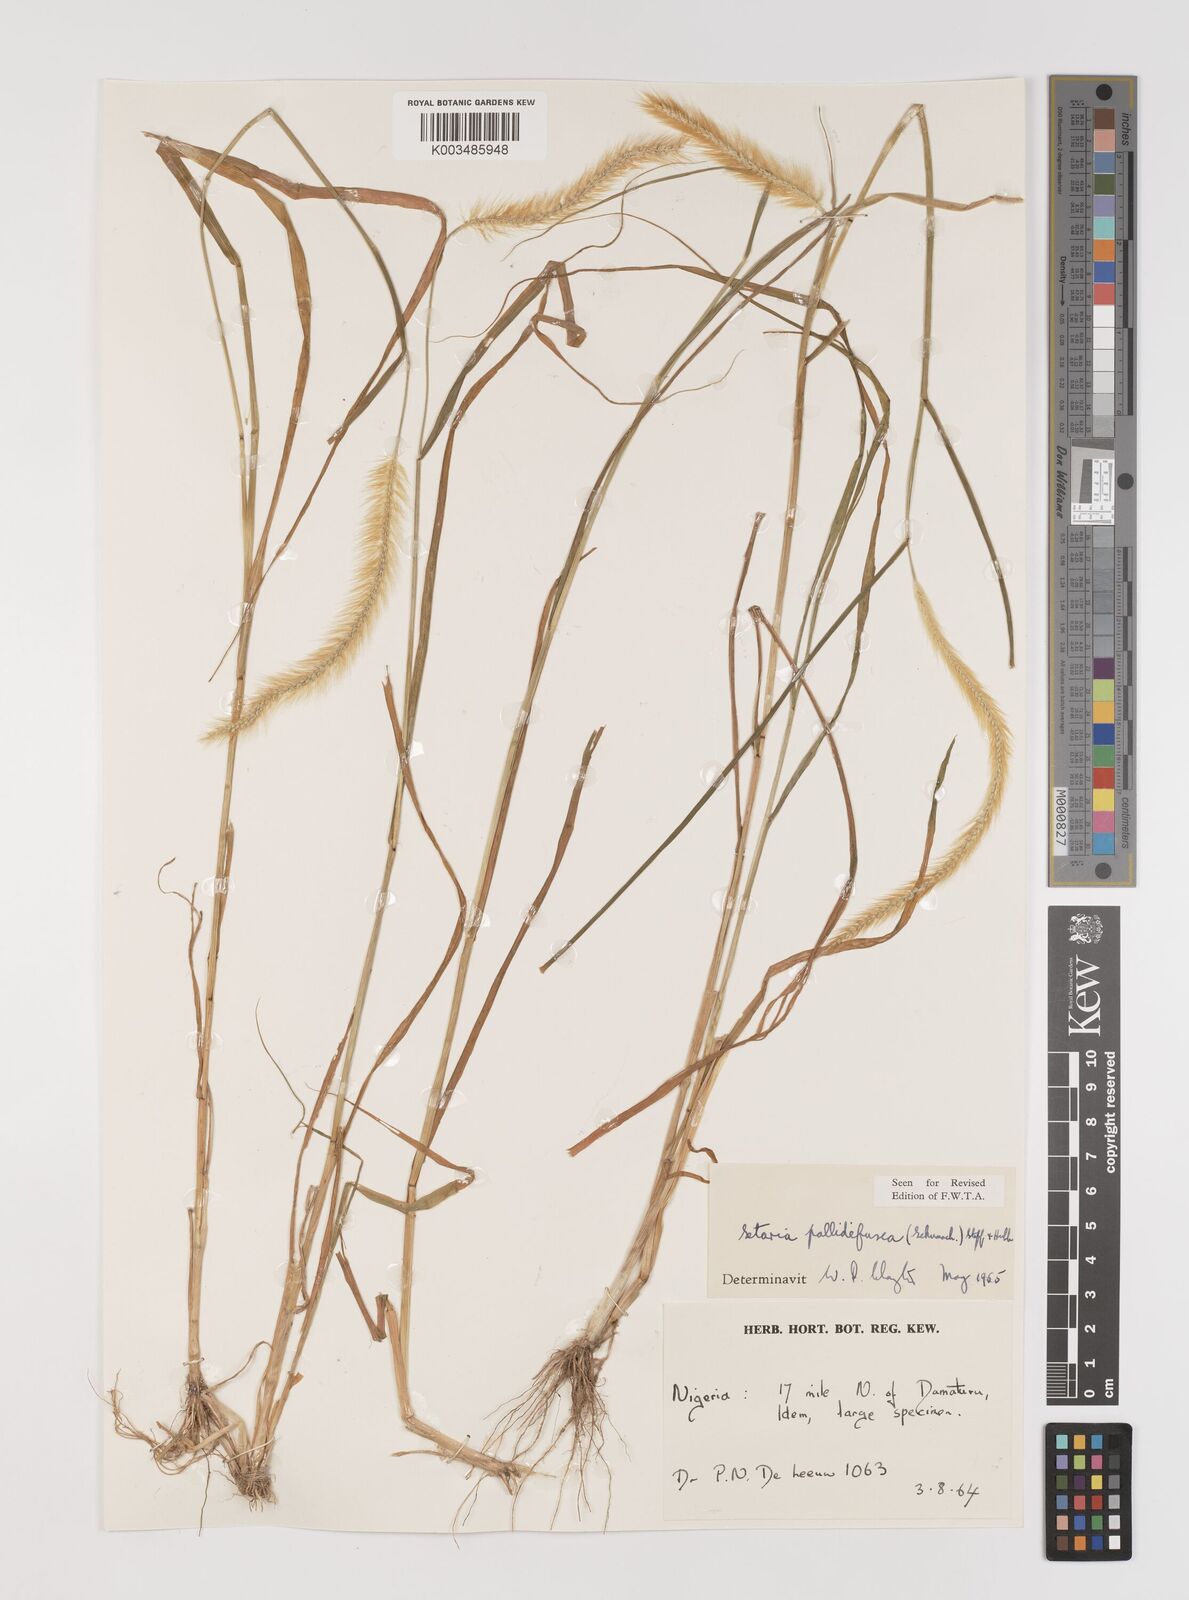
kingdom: Plantae
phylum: Tracheophyta
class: Liliopsida
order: Poales
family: Poaceae
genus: Setaria
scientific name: Setaria pumila
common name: Yellow bristle-grass
